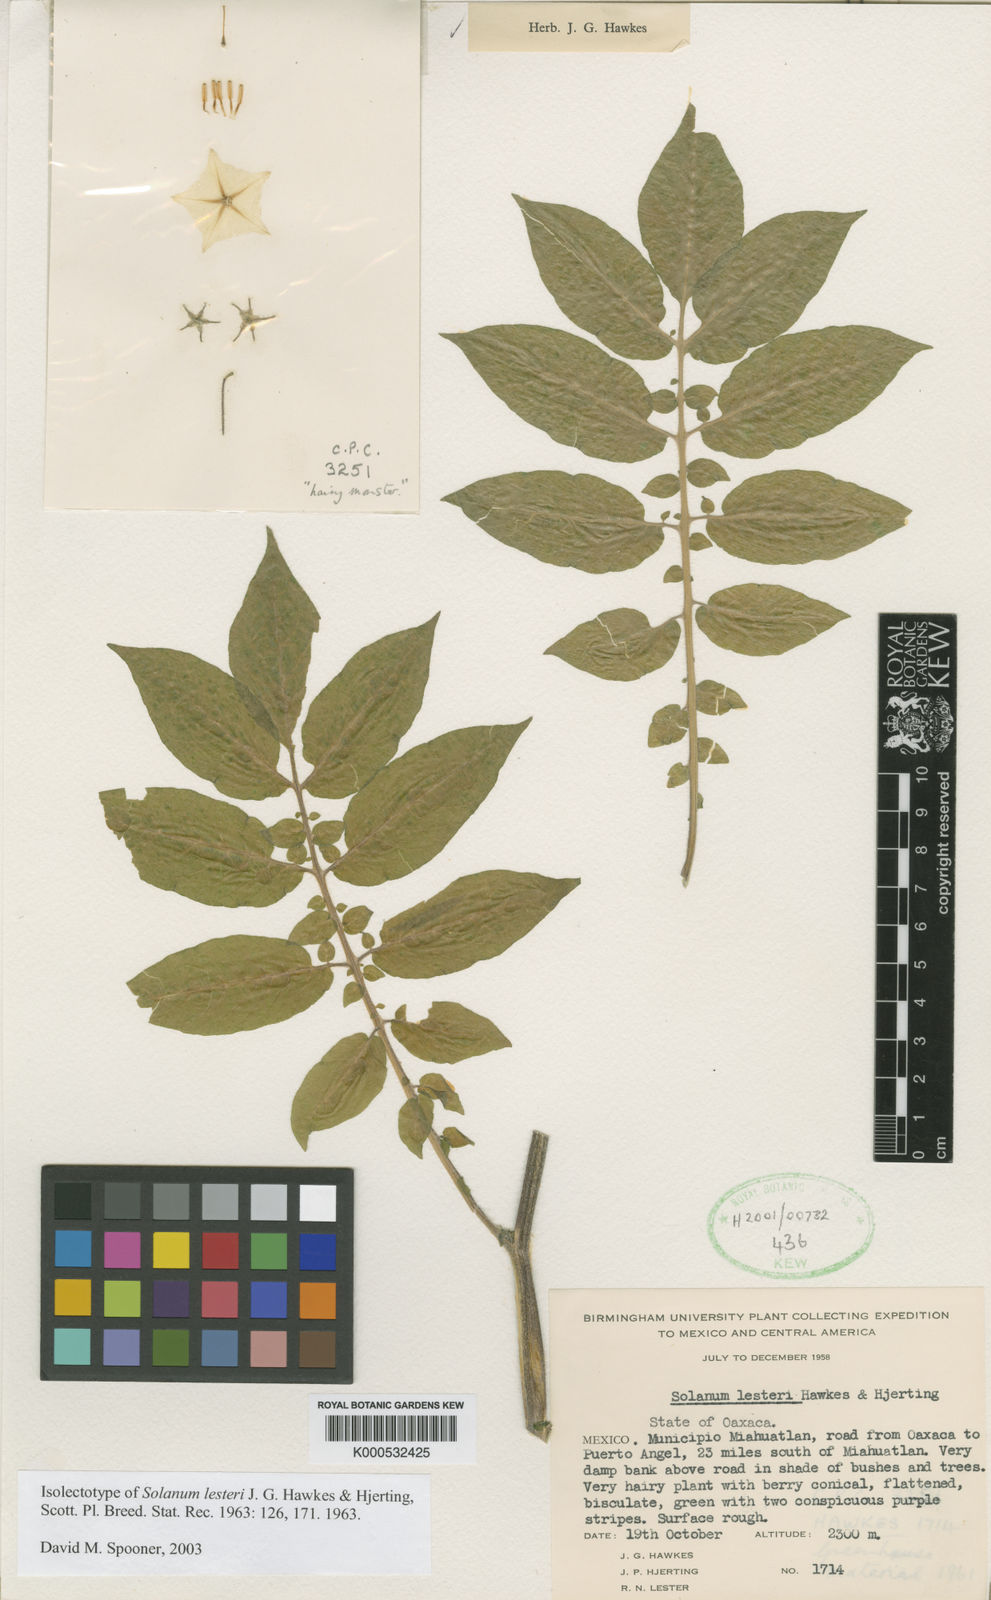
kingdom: Plantae
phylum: Tracheophyta
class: Magnoliopsida
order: Solanales
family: Solanaceae
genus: Solanum
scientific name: Solanum lesteri
